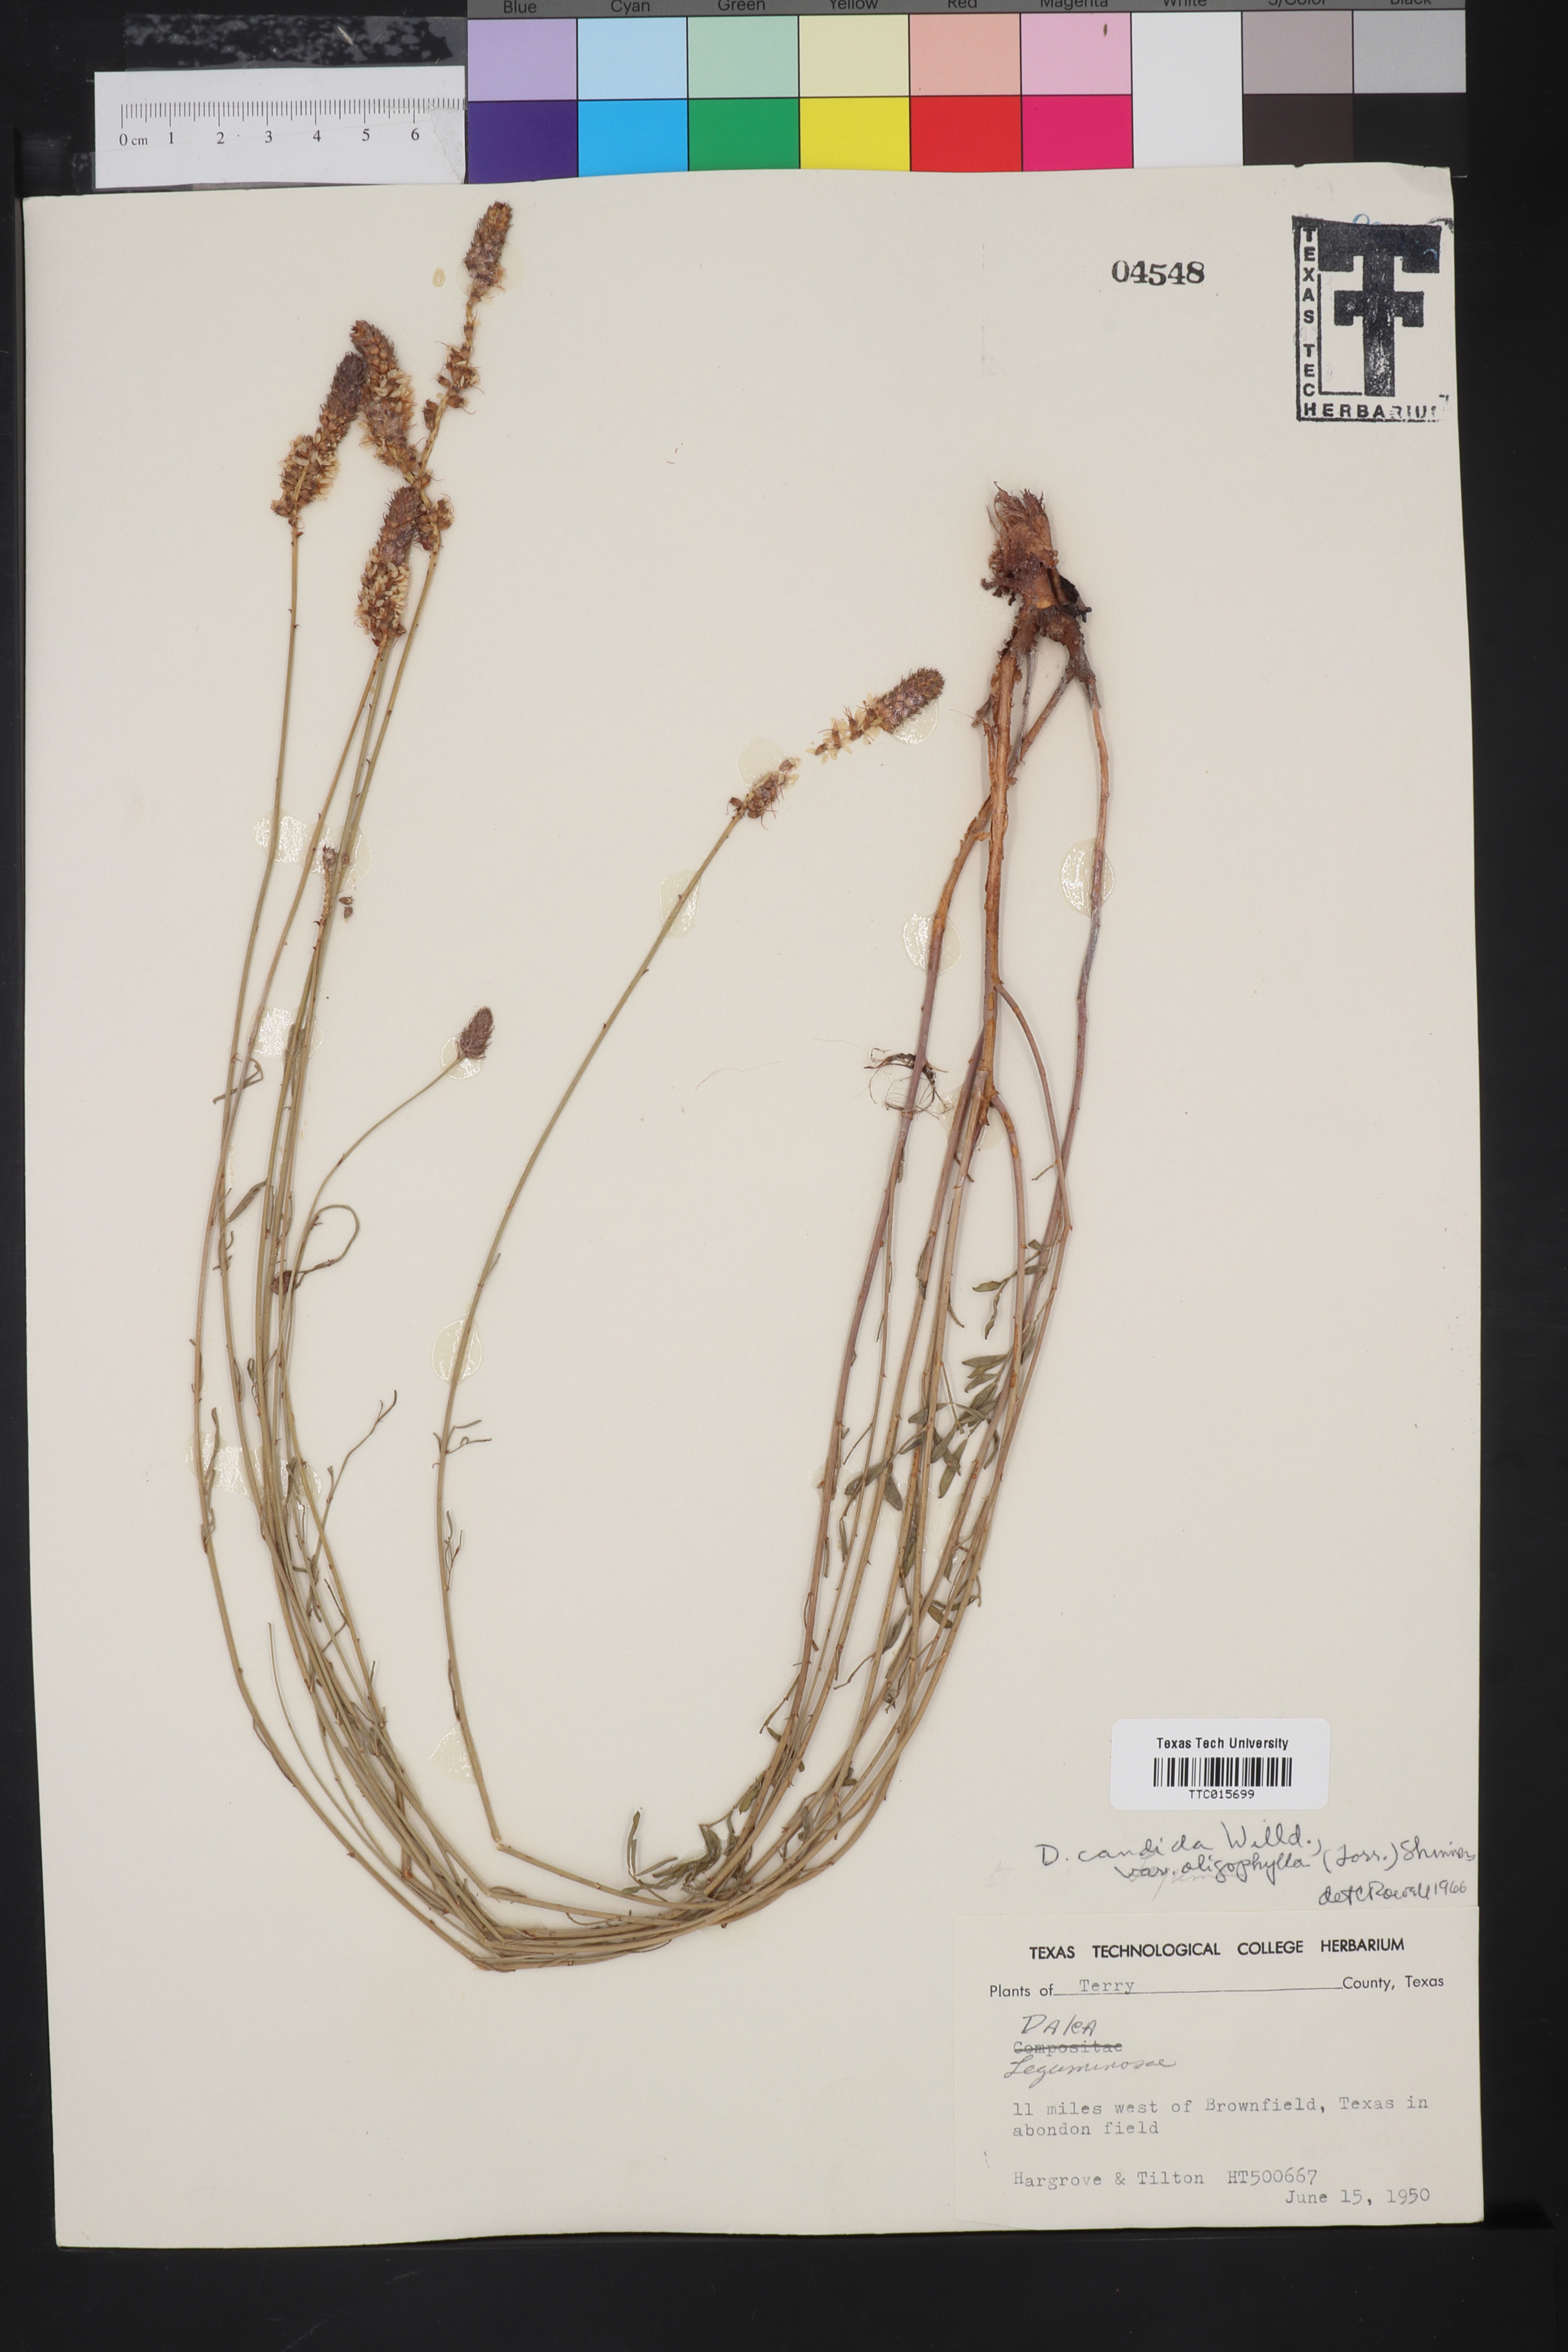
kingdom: Plantae
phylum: Tracheophyta
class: Magnoliopsida
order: Fabales
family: Fabaceae
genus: Petalostemum
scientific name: Petalostemum
